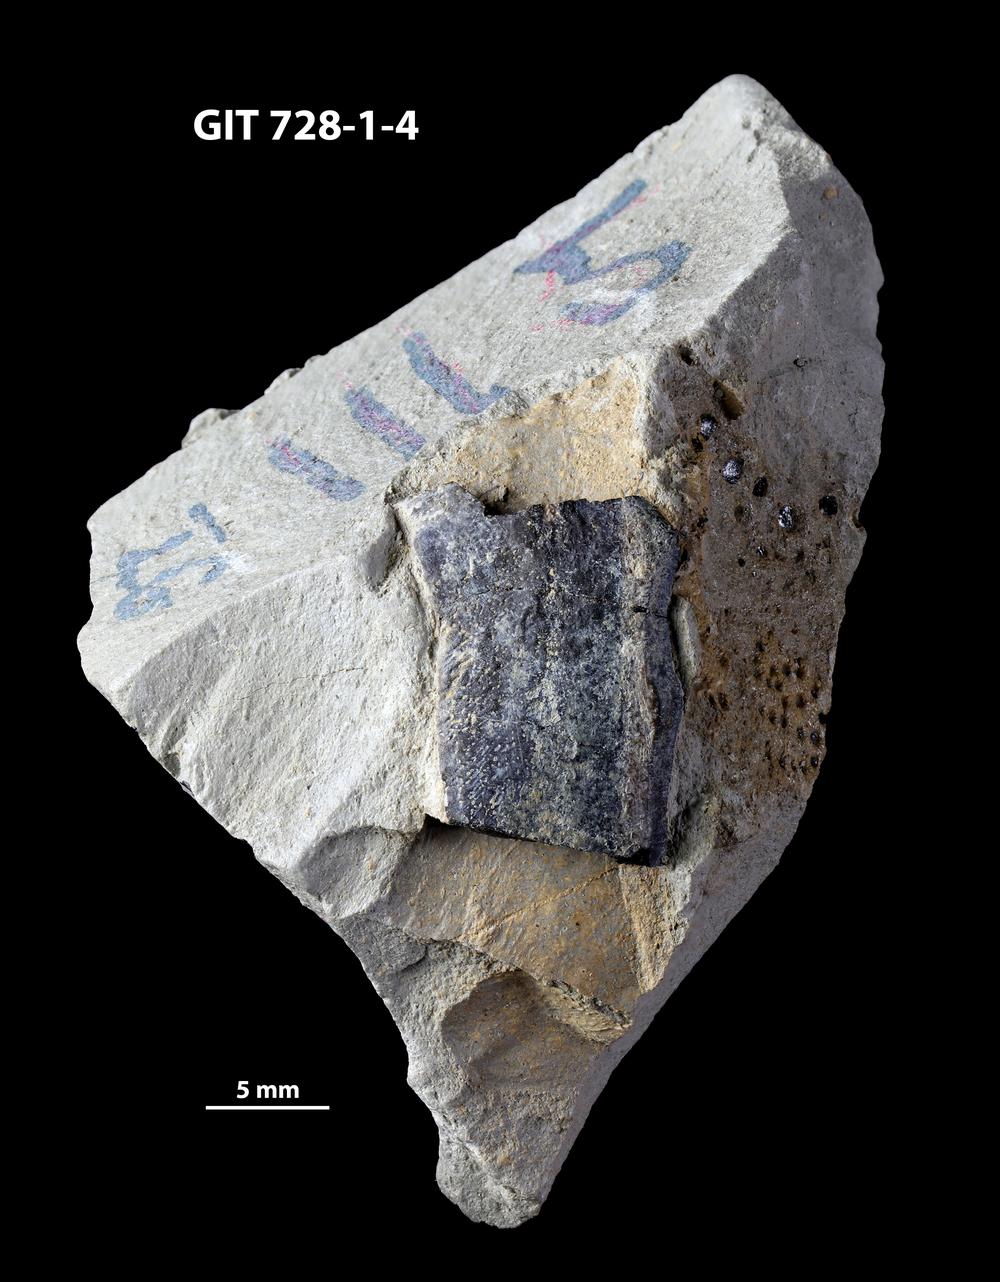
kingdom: Animalia
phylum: Chordata
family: Coccosteidae
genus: Watsonosteus
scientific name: Watsonosteus
